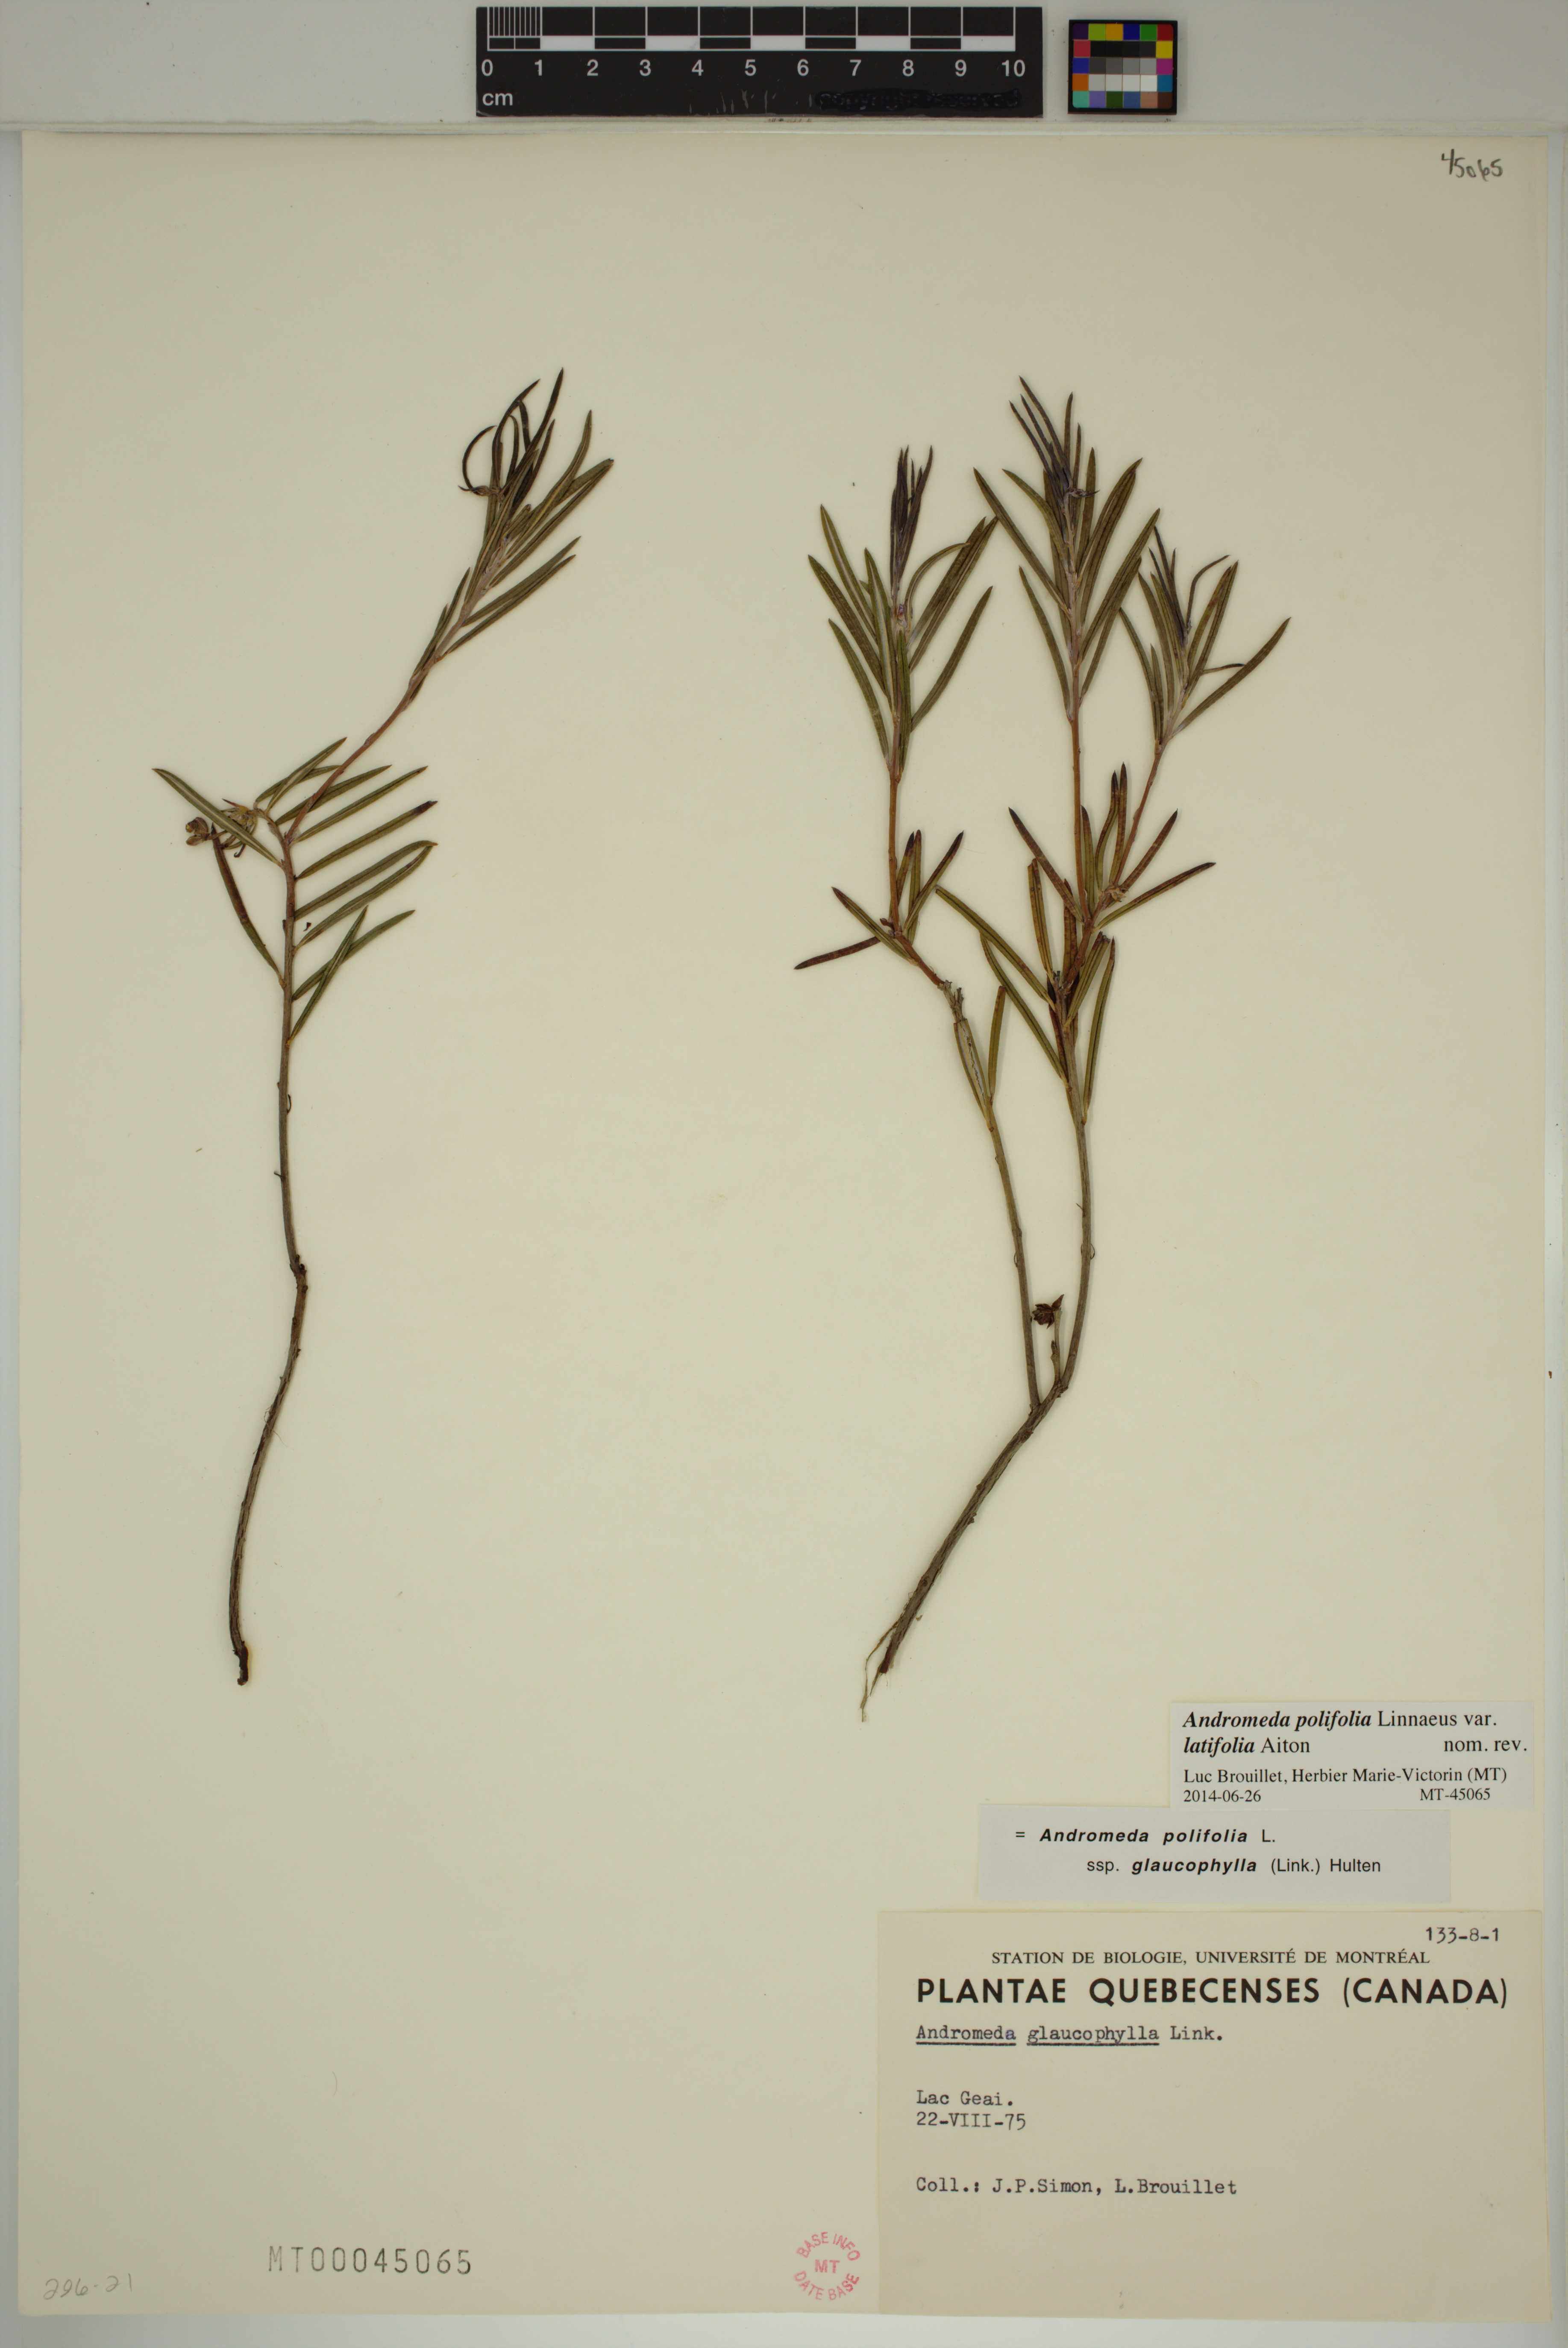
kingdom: Plantae
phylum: Tracheophyta
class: Magnoliopsida
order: Ericales
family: Ericaceae
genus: Andromeda
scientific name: Andromeda polifolia
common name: Bog-rosemary
